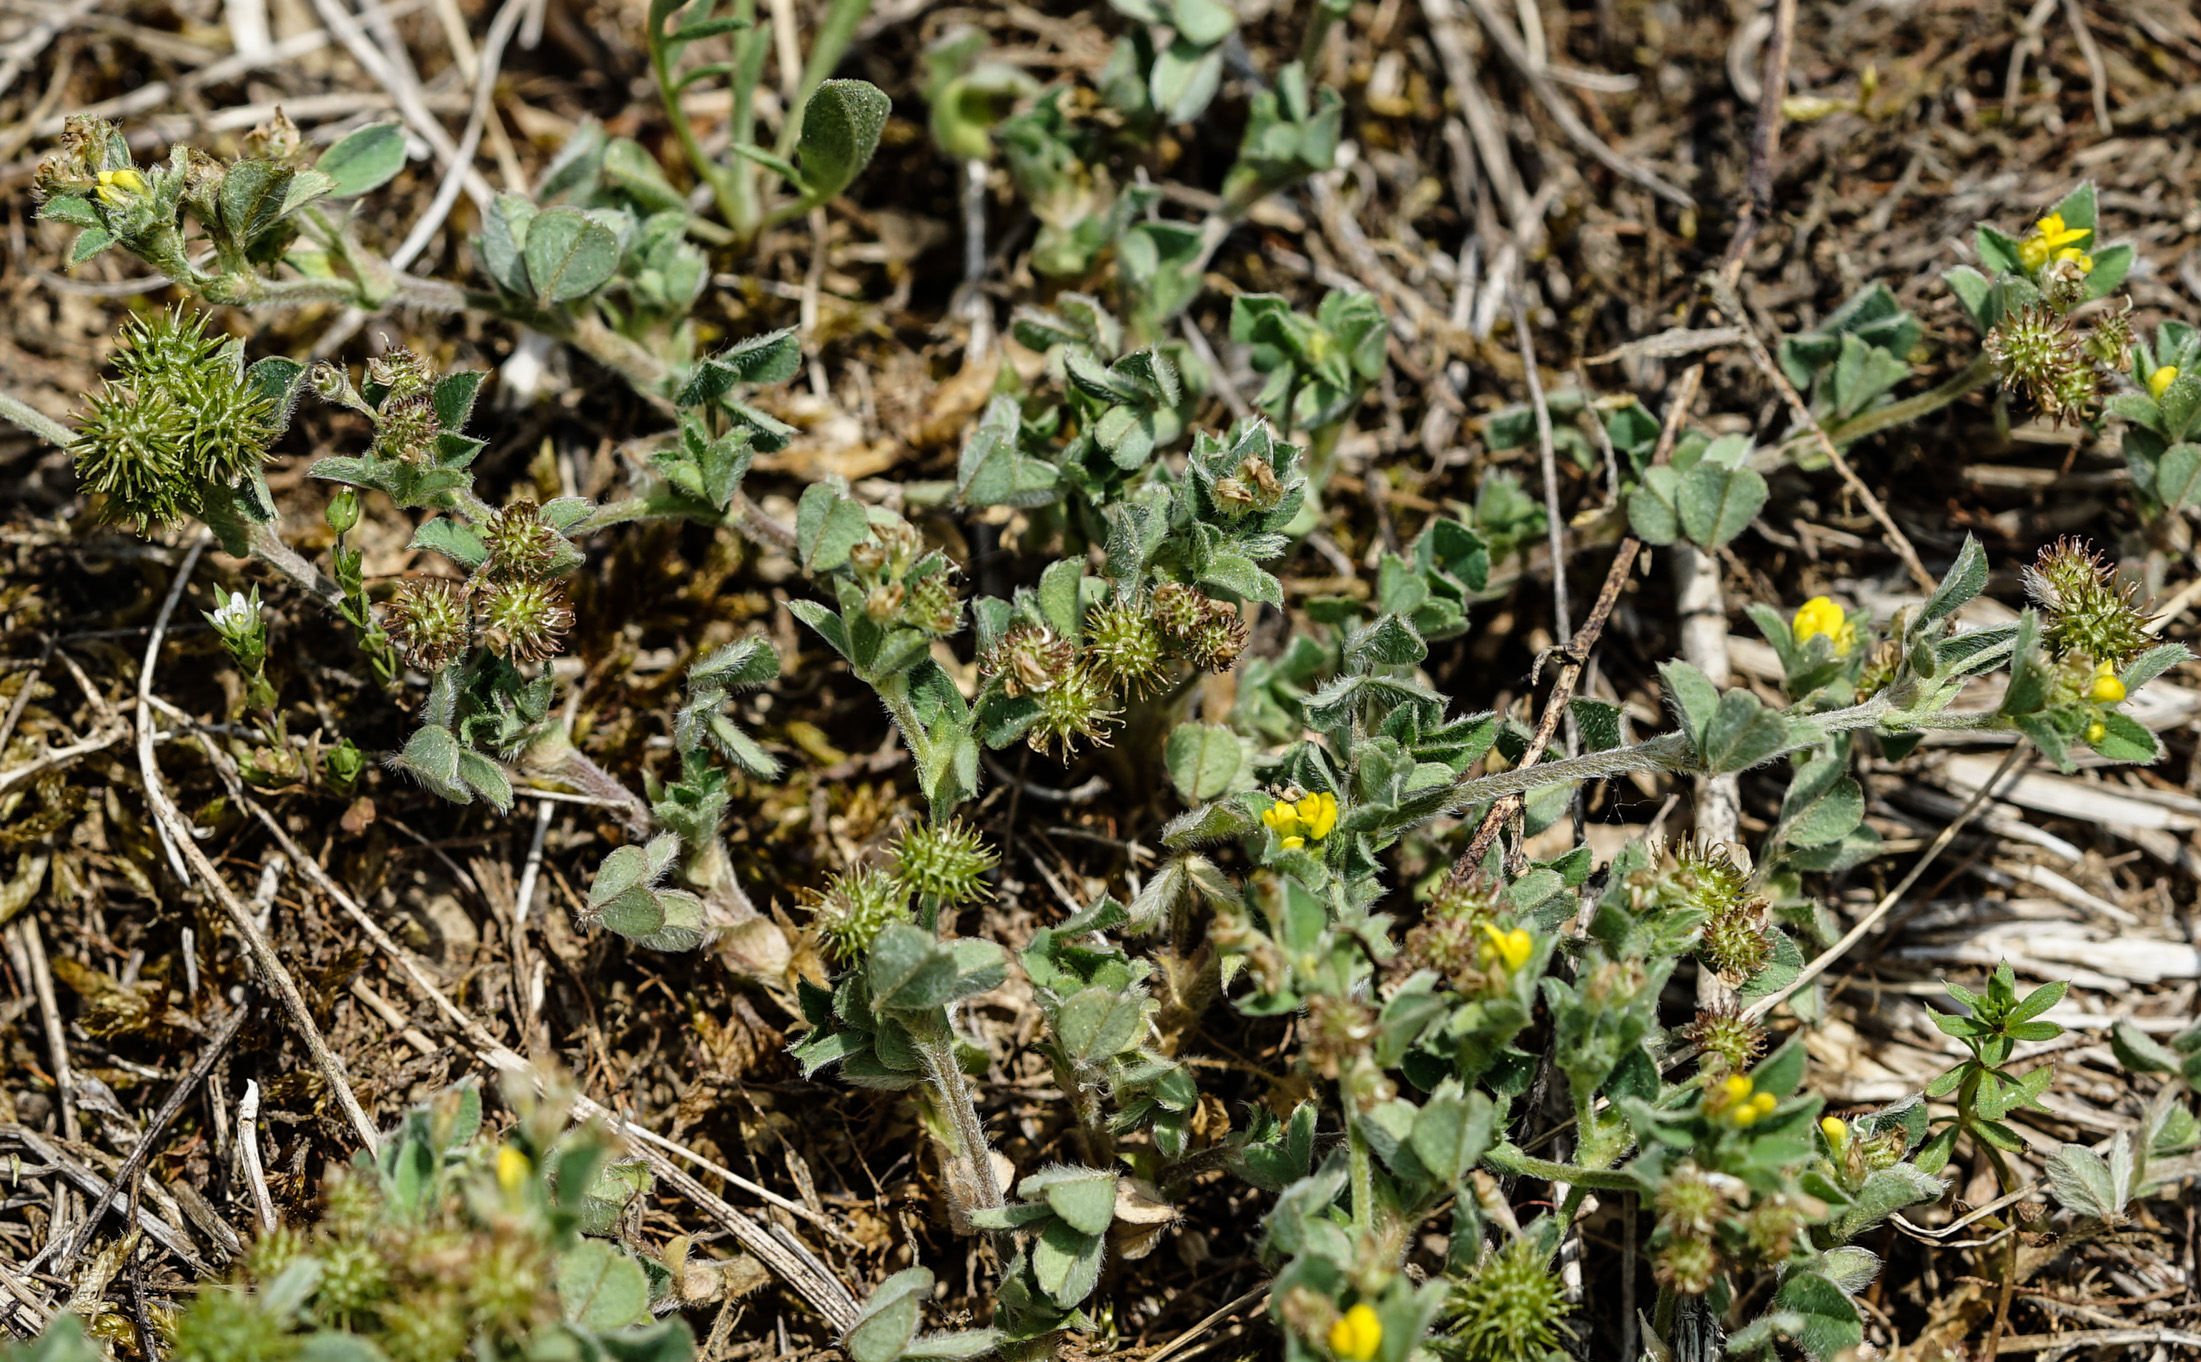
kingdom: Plantae
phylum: Tracheophyta
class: Magnoliopsida
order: Fabales
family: Fabaceae
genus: Medicago
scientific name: Medicago minima
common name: Little bur-clover
